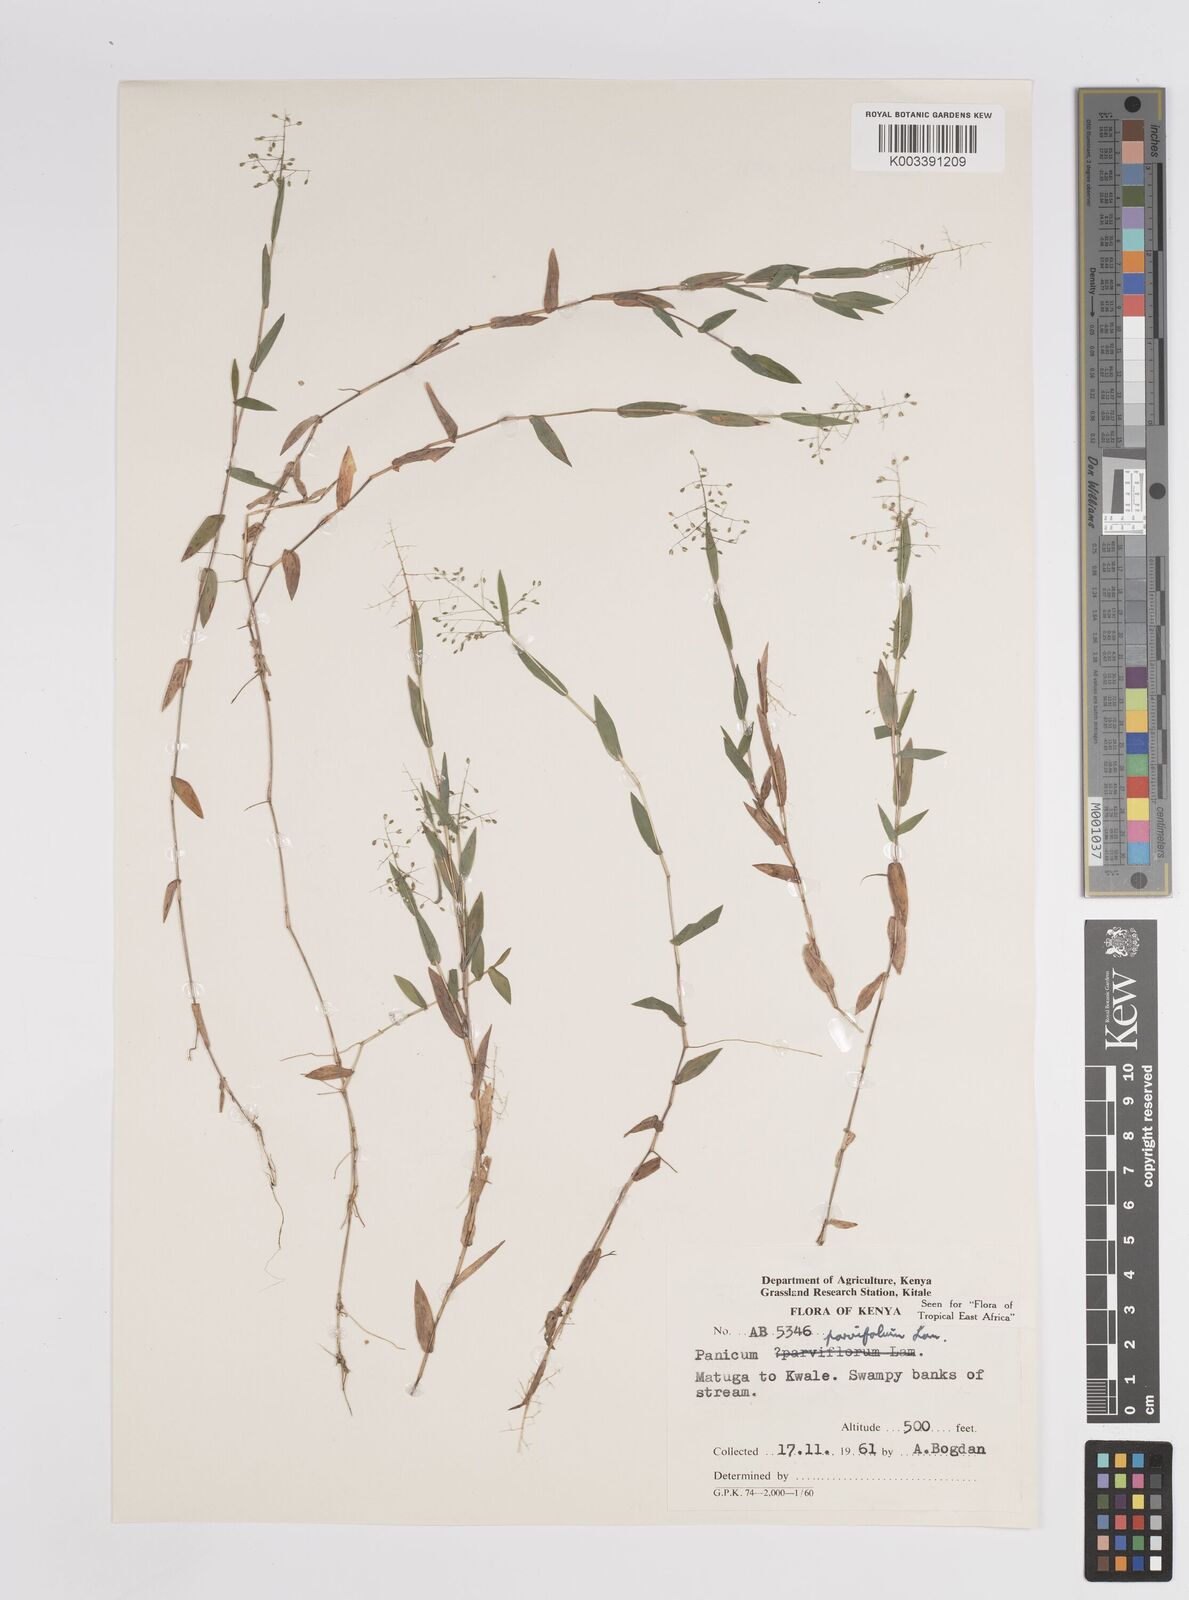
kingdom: Plantae
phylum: Tracheophyta
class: Liliopsida
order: Poales
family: Poaceae
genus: Trichanthecium
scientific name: Trichanthecium parvifolium
